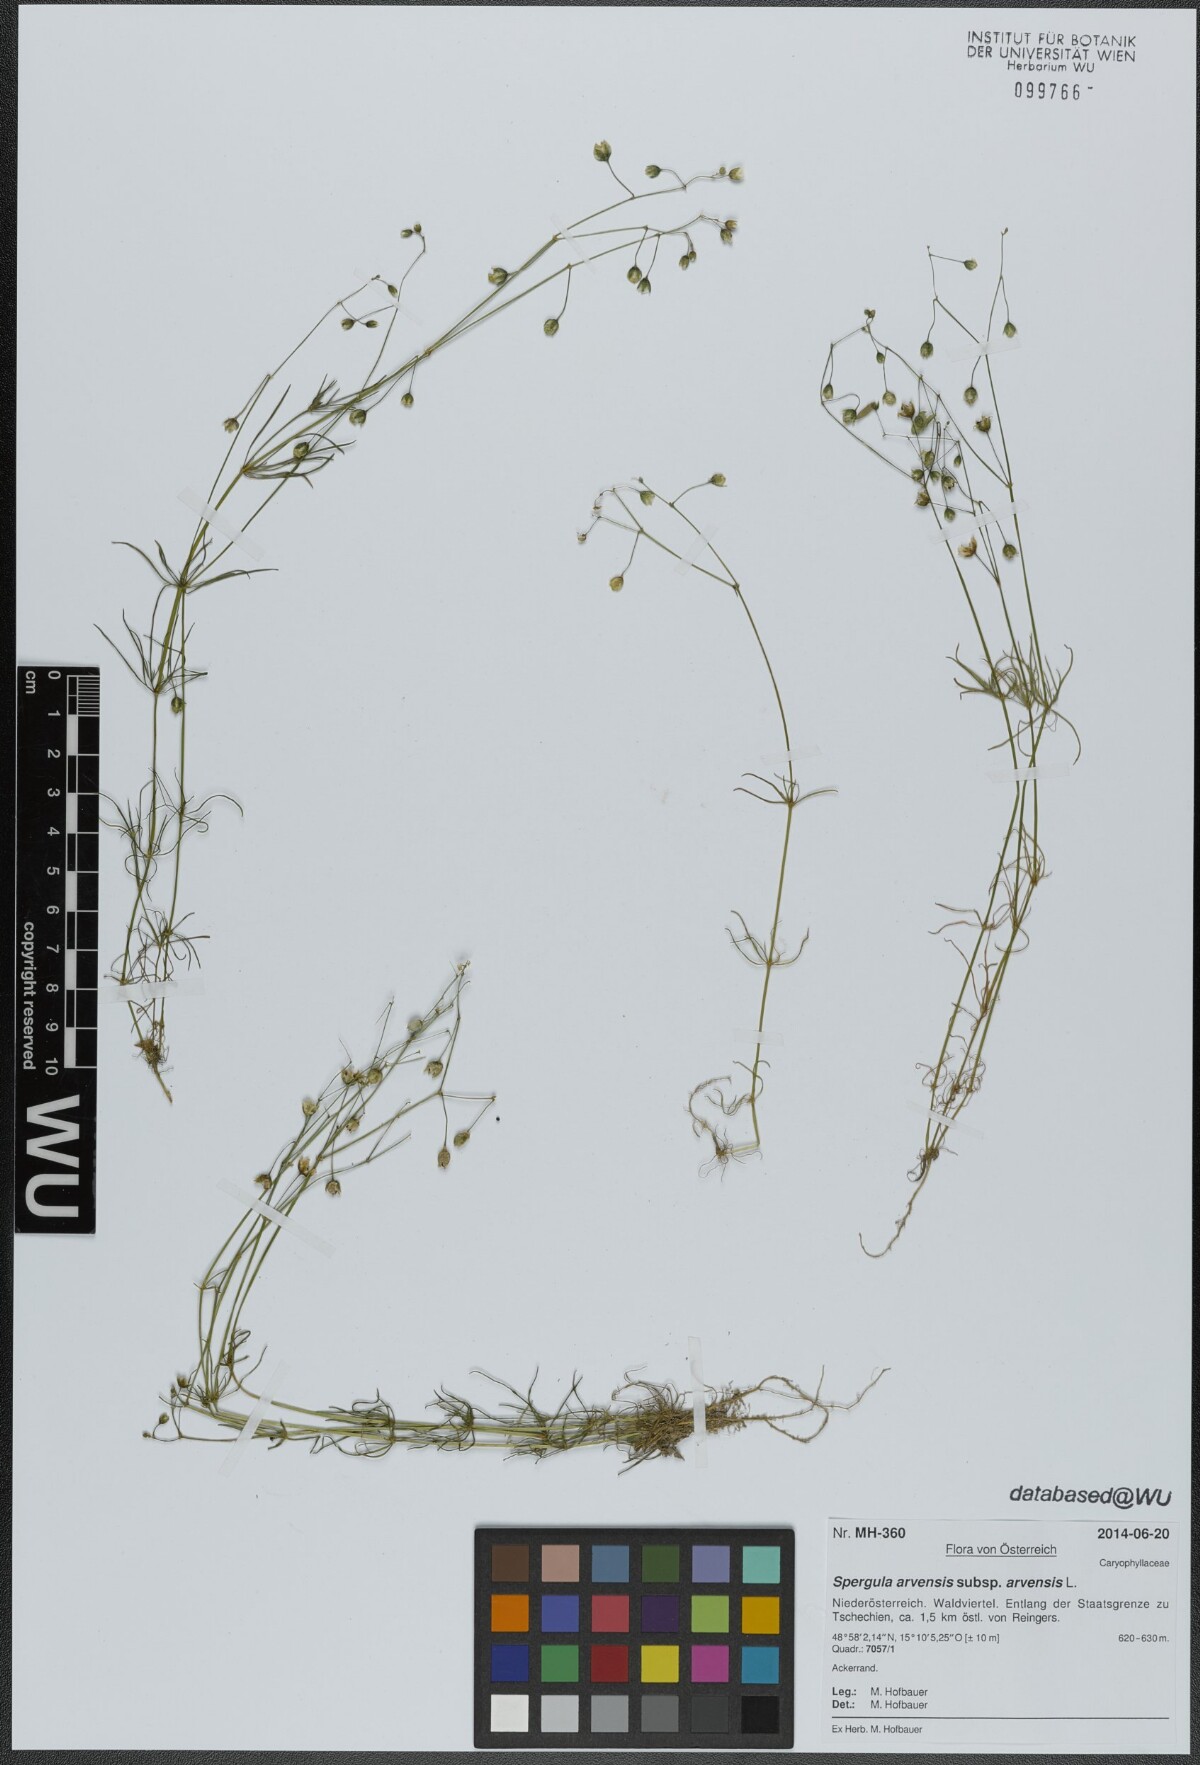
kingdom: Plantae
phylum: Tracheophyta
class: Magnoliopsida
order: Caryophyllales
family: Caryophyllaceae
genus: Spergula
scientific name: Spergula arvensis
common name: Corn spurrey
